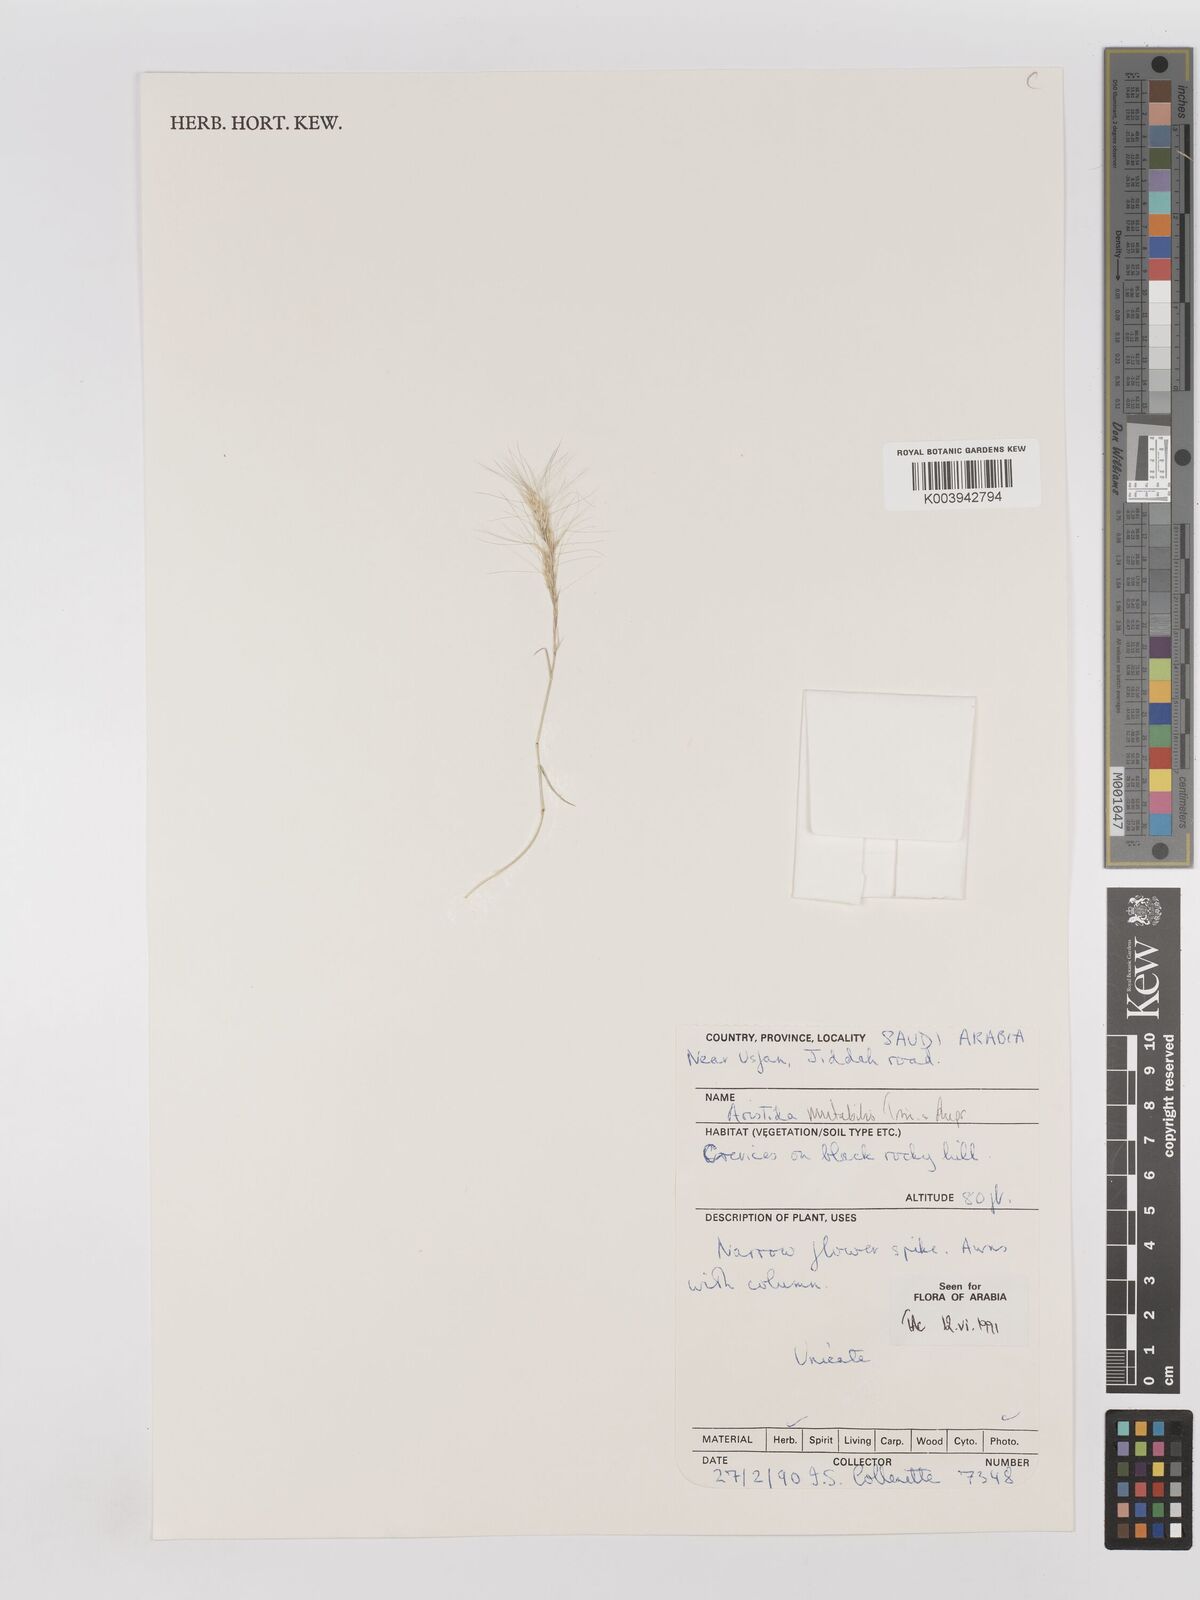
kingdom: Plantae
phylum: Tracheophyta
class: Liliopsida
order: Poales
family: Poaceae
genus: Aristida
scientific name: Aristida mutabilis
